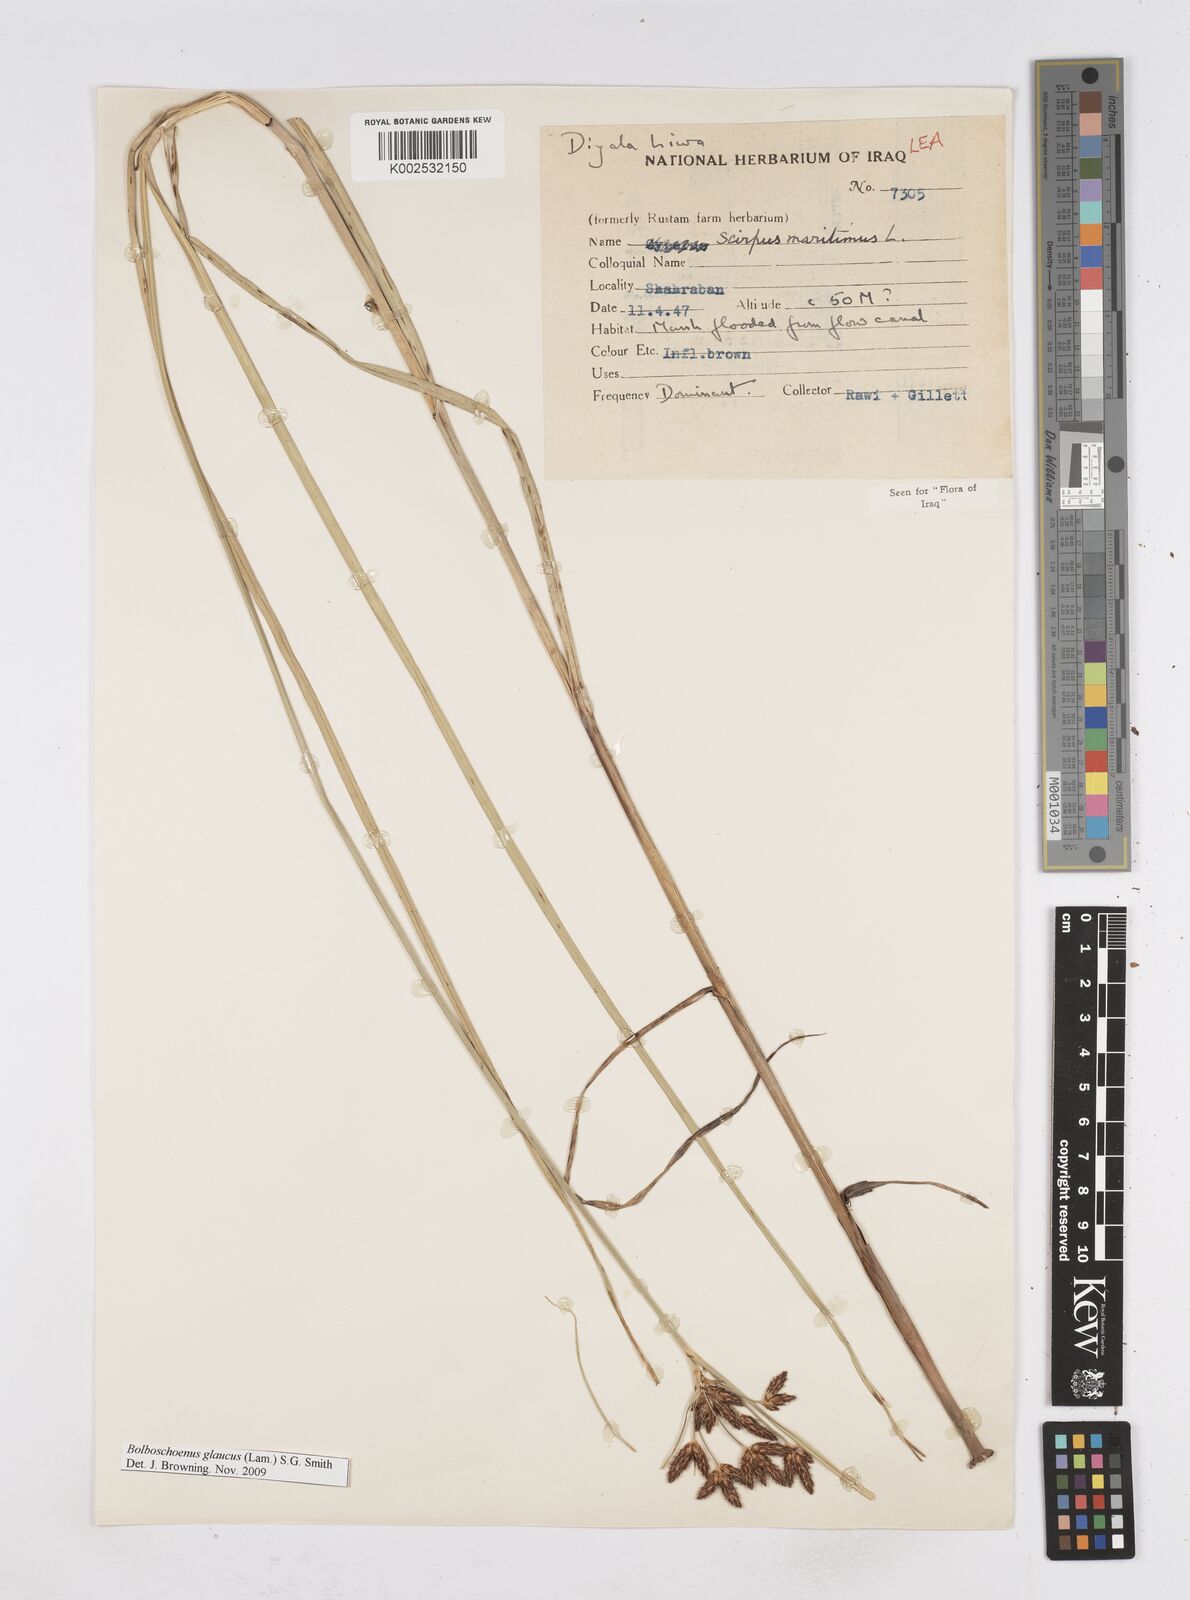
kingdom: Plantae
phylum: Tracheophyta
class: Liliopsida
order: Poales
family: Cyperaceae
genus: Bolboschoenus
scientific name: Bolboschoenus maritimus
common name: Sea club-rush
